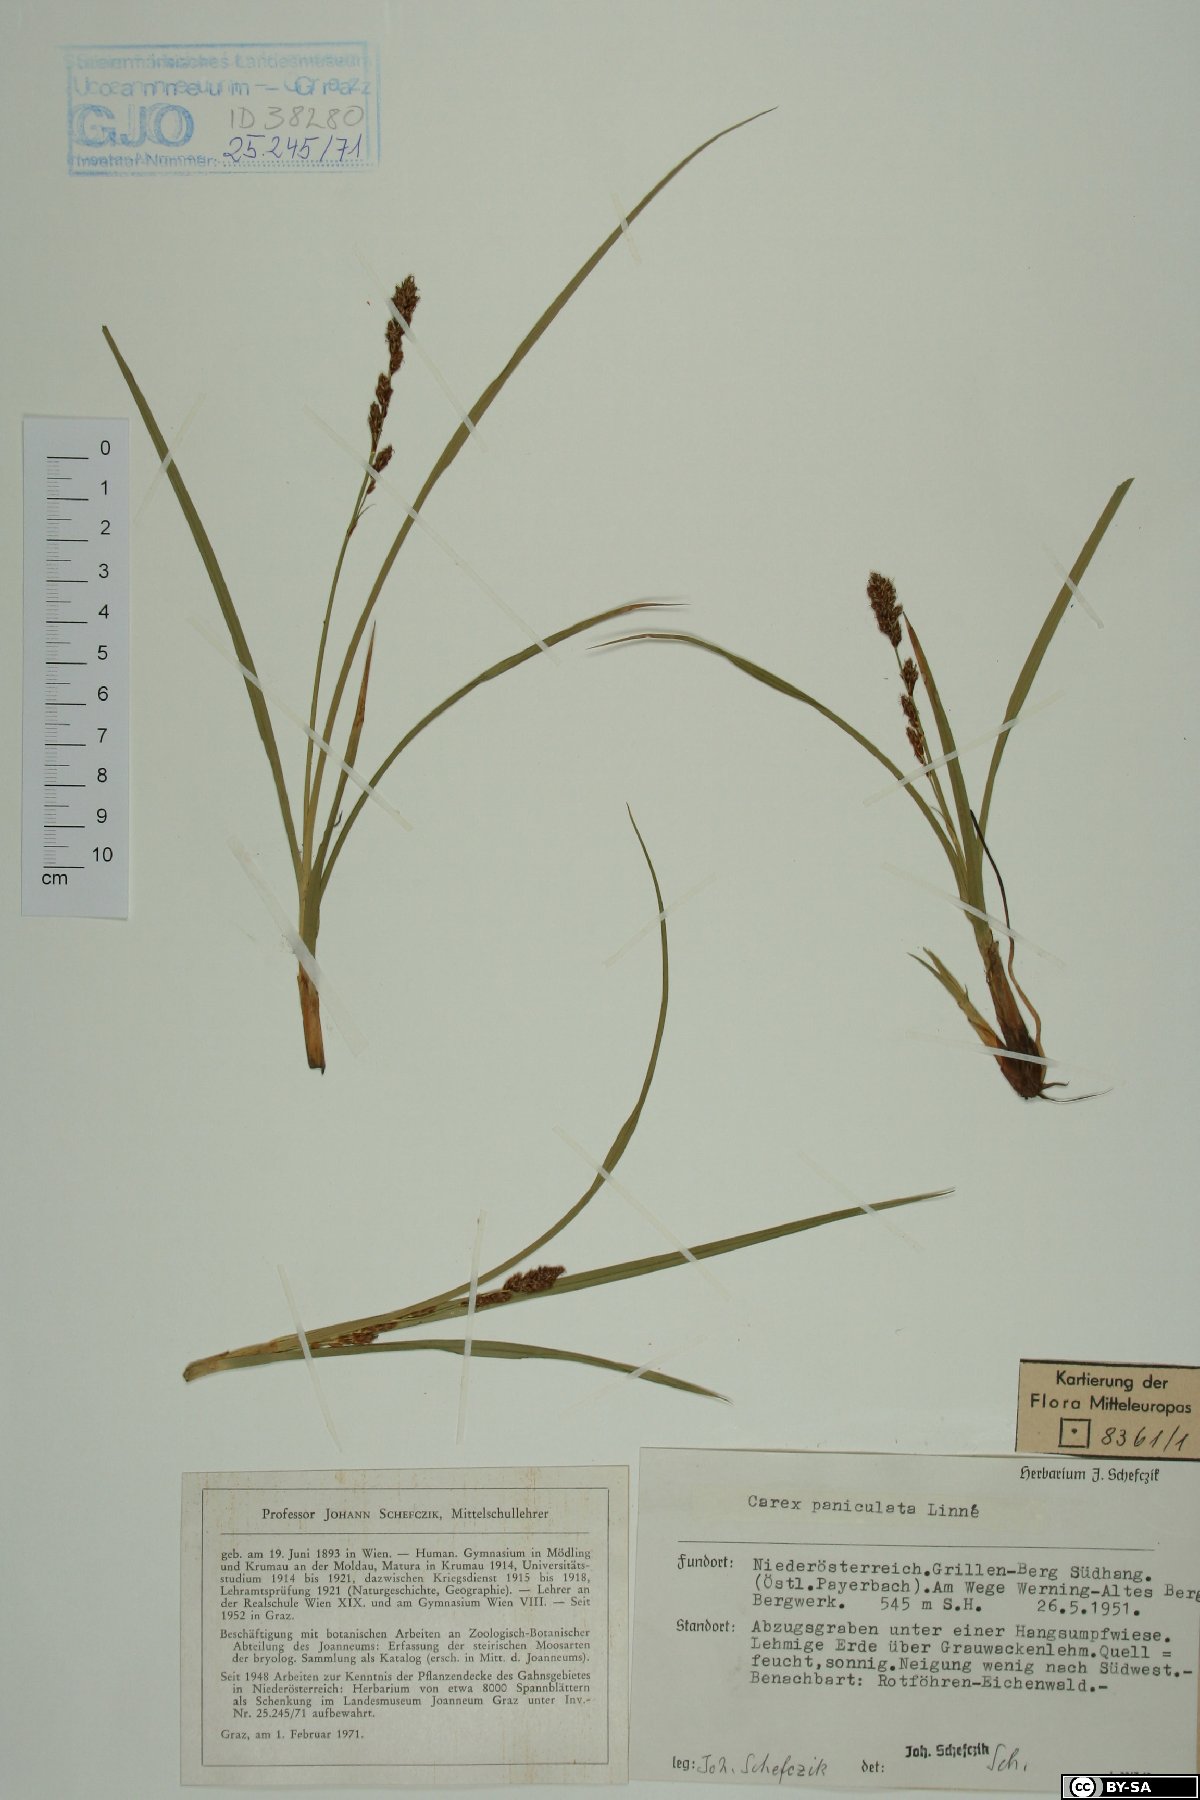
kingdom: Plantae
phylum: Tracheophyta
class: Liliopsida
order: Poales
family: Cyperaceae
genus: Carex
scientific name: Carex paniculata
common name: Greater tussock-sedge
